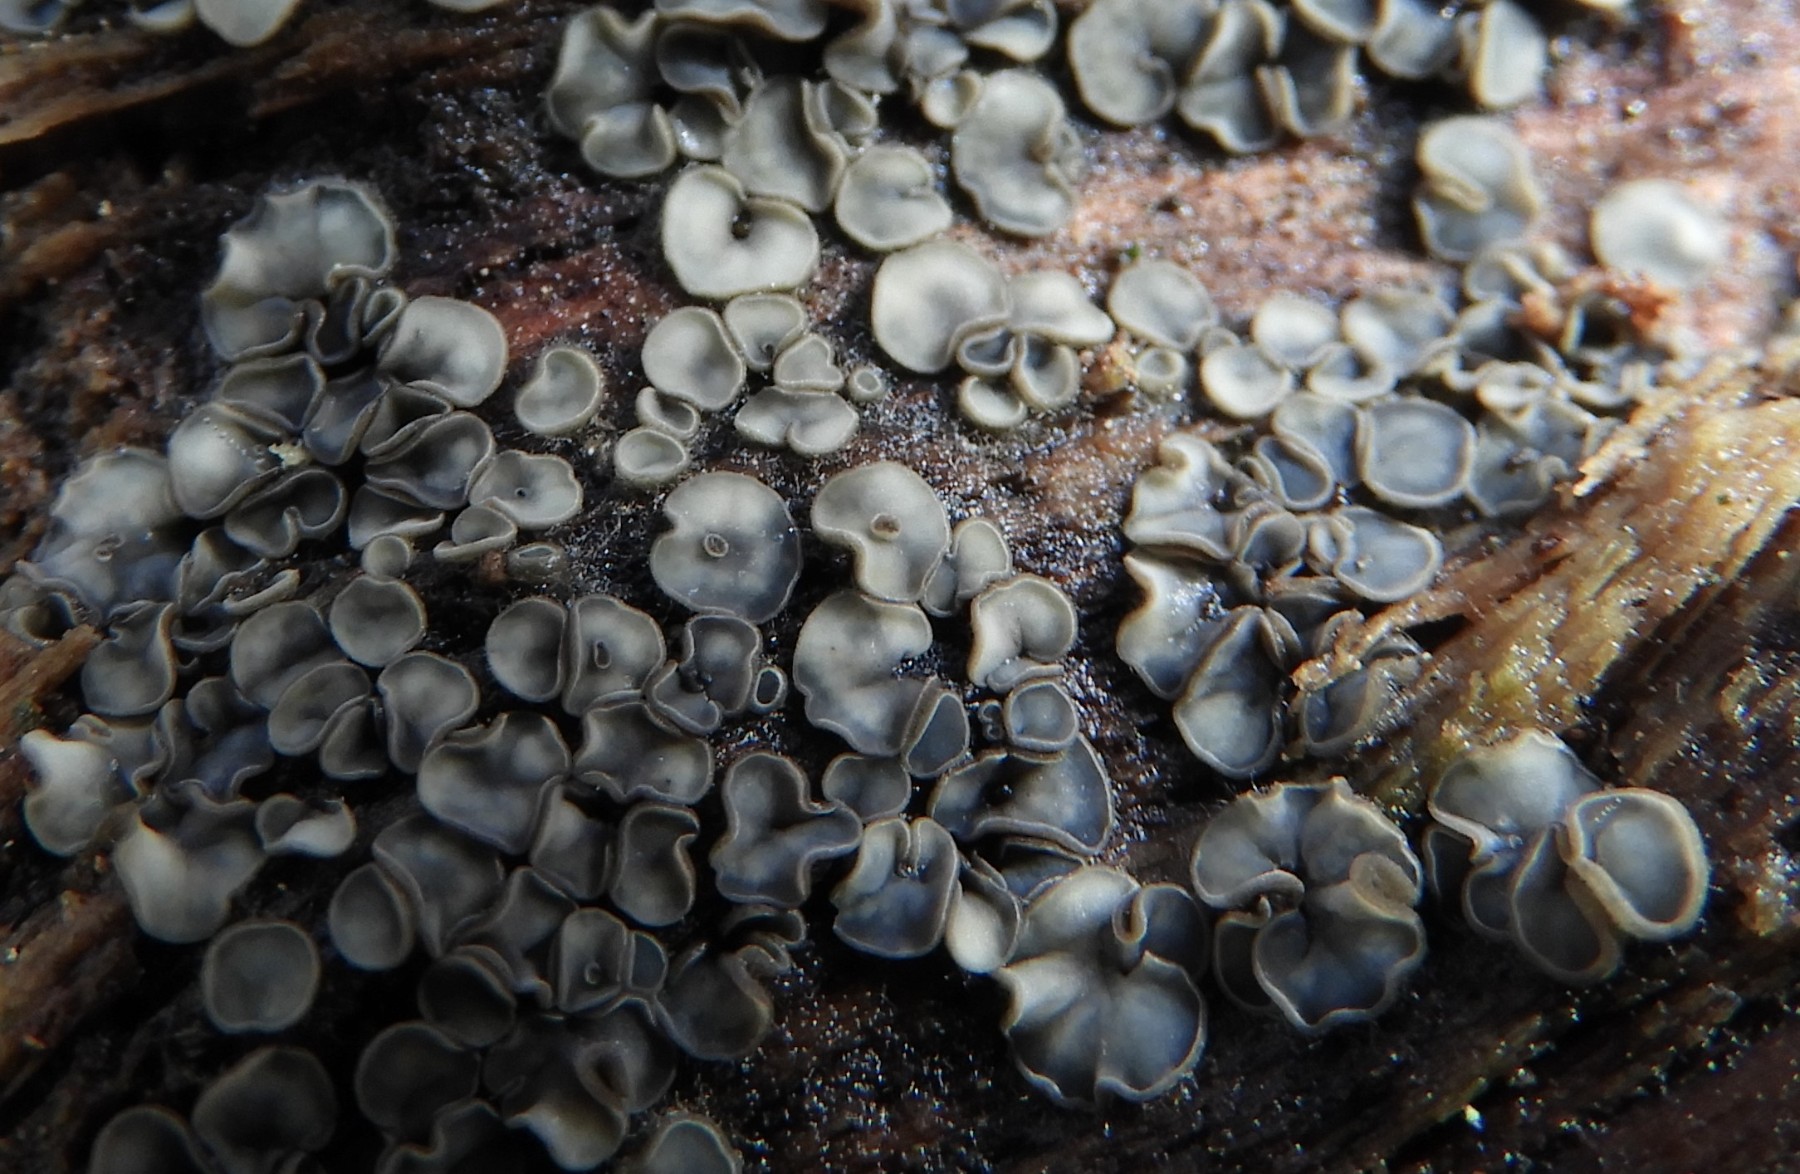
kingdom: Fungi
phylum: Ascomycota
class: Leotiomycetes
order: Helotiales
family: Mollisiaceae
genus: Mollisia
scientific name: Mollisia
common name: gråskive
